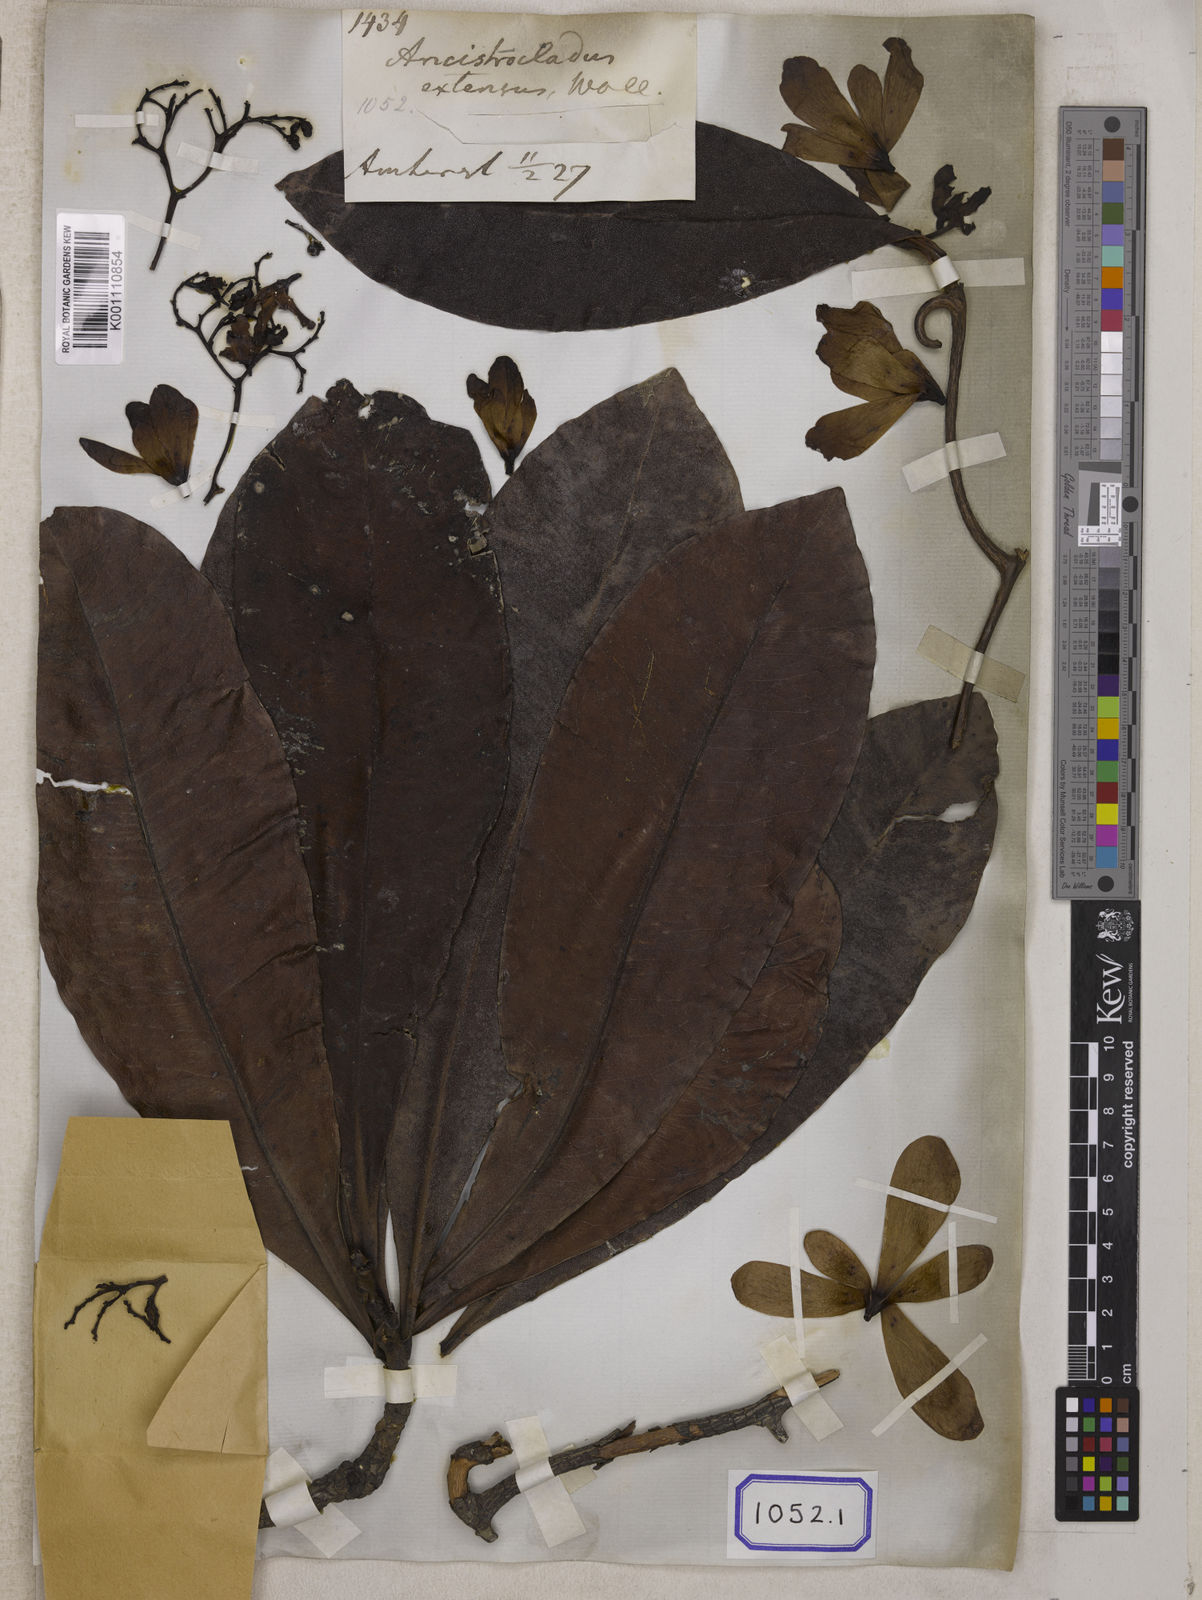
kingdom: Plantae
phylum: Tracheophyta
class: Magnoliopsida
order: Caryophyllales
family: Ancistrocladaceae
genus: Ancistrocladus
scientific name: Ancistrocladus
